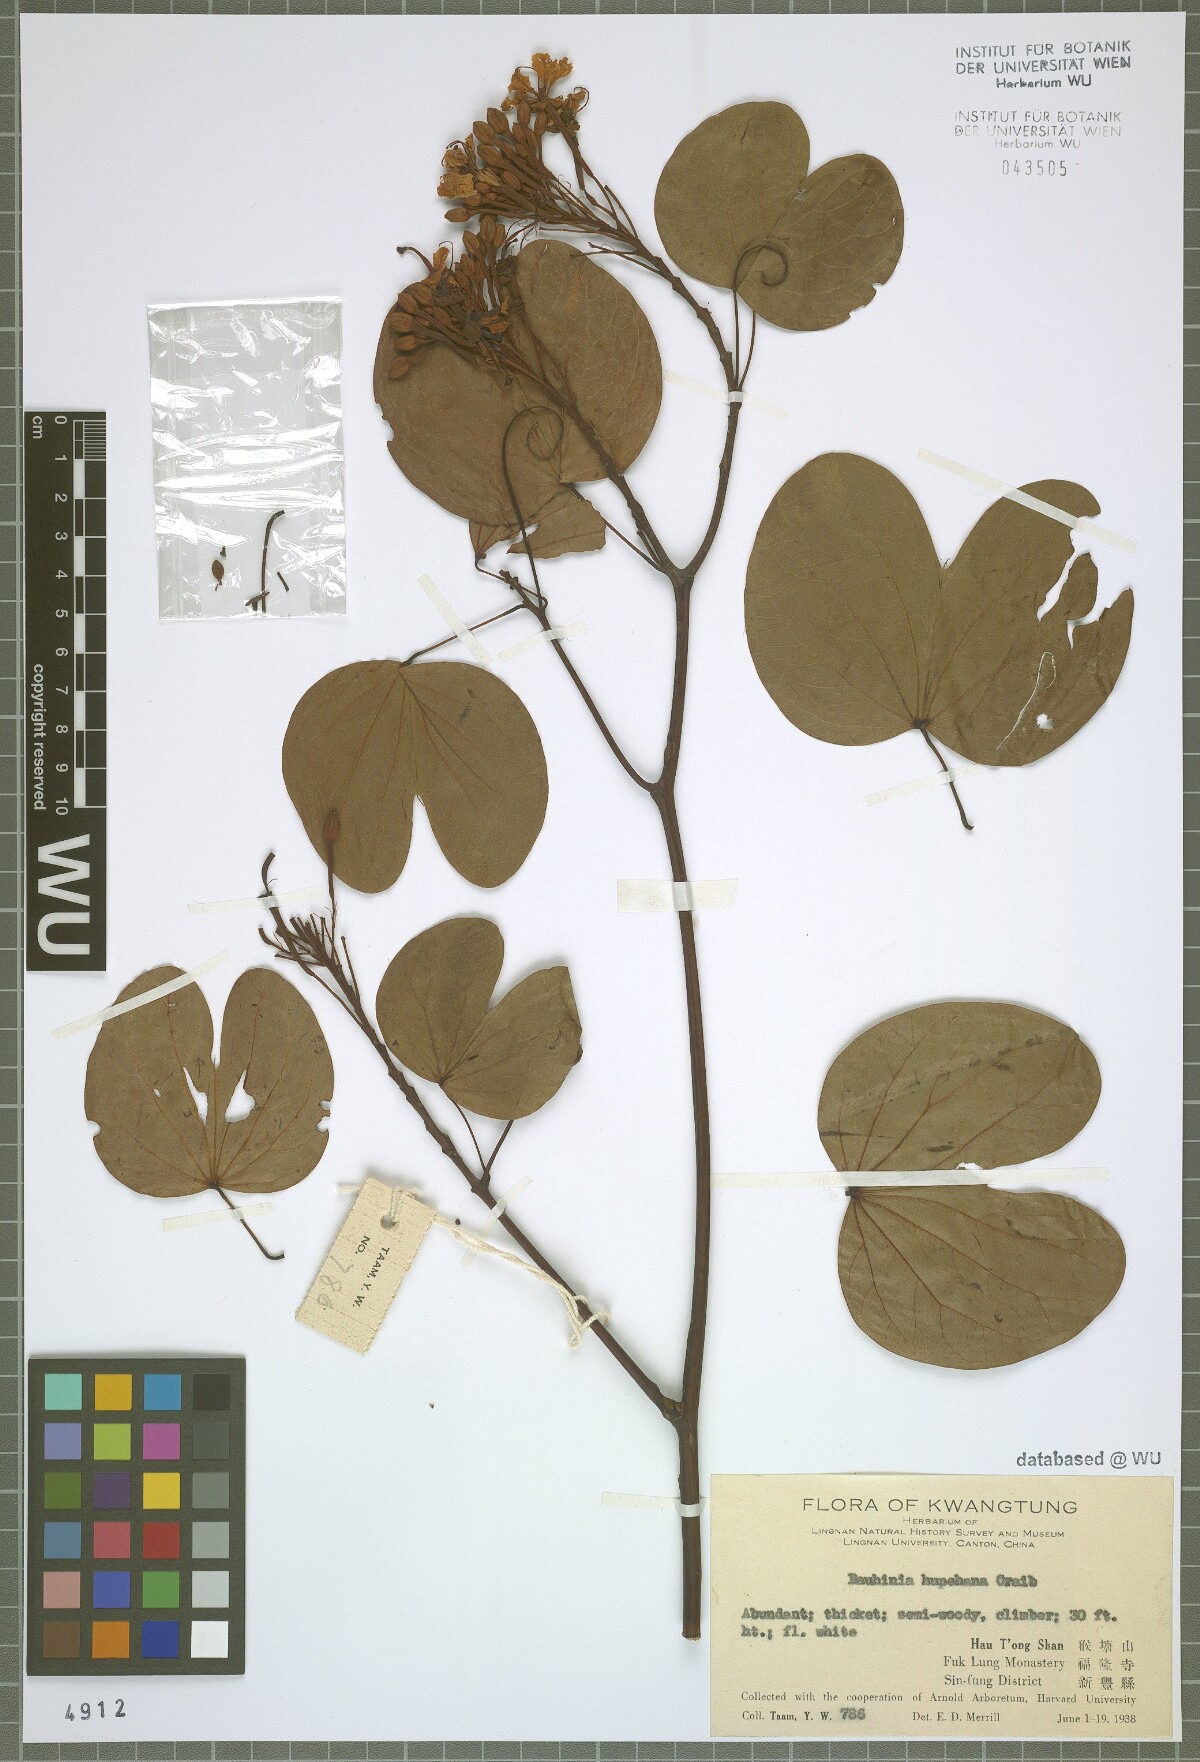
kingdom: Plantae
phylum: Tracheophyta
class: Magnoliopsida
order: Fabales
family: Fabaceae
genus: Cheniella
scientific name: Cheniella tenuiflora
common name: Bauhinia
